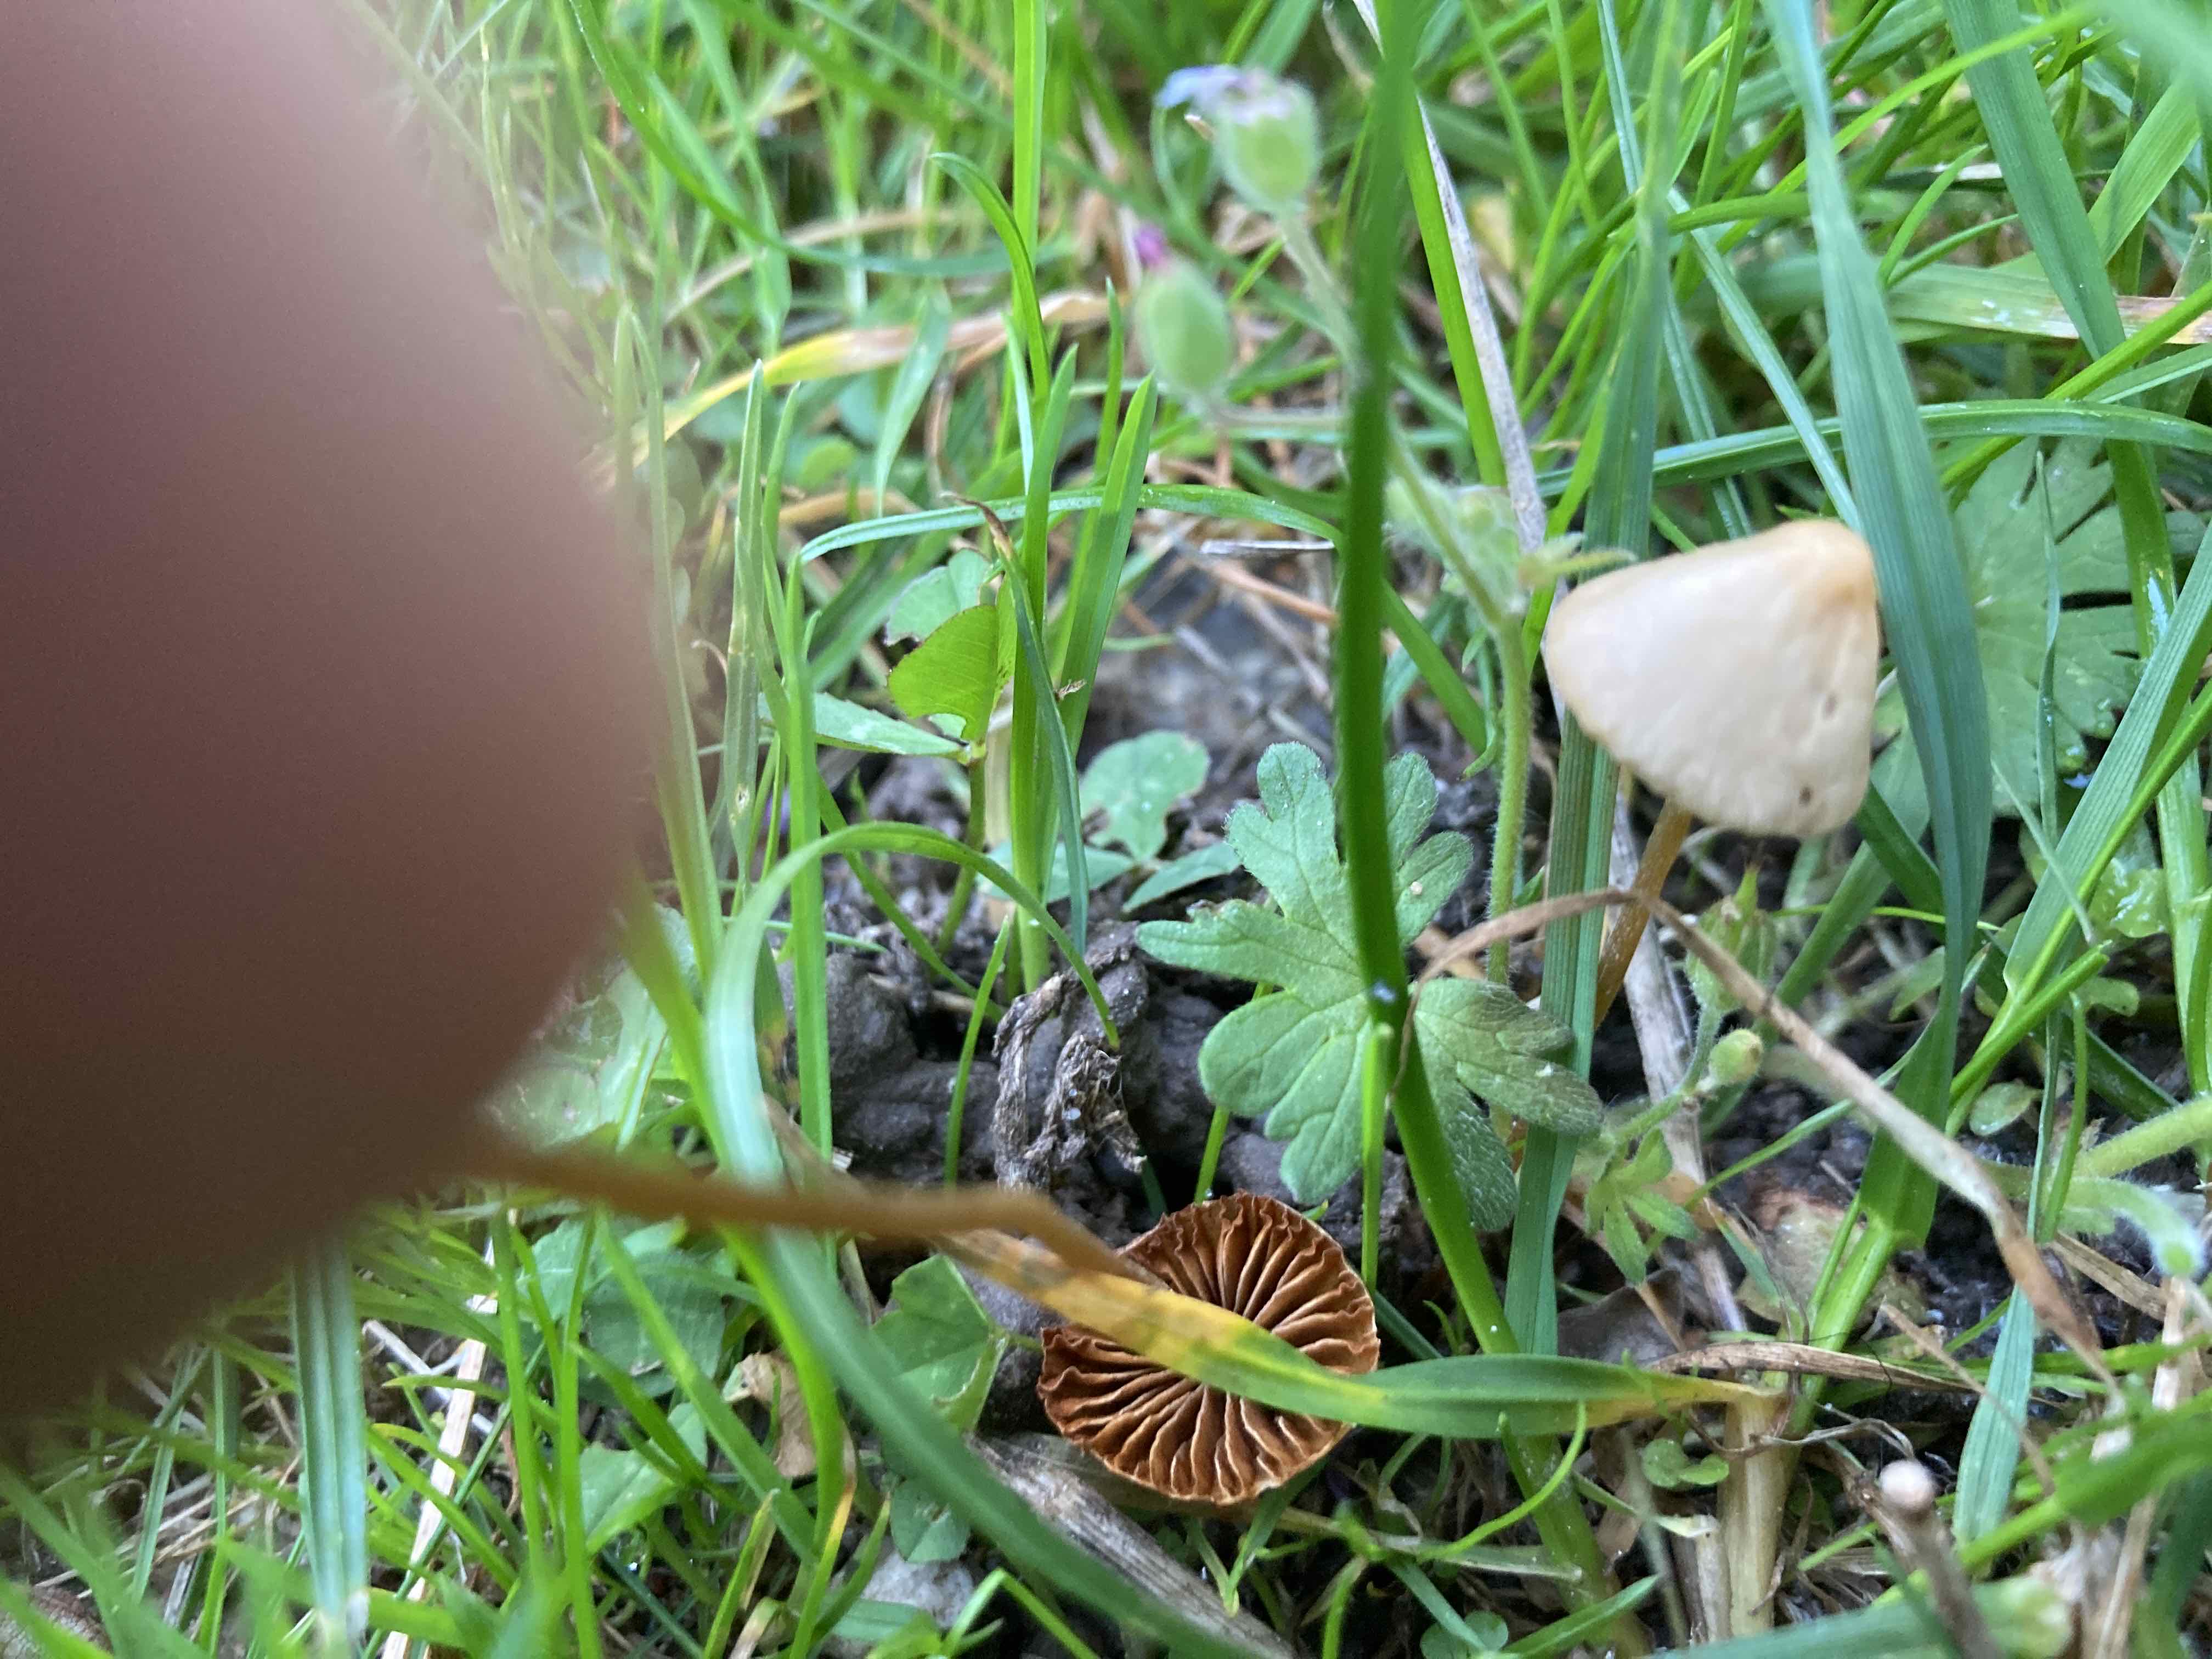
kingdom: Fungi
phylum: Basidiomycota
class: Agaricomycetes
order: Agaricales
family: Bolbitiaceae
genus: Conocybe
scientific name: Conocybe
